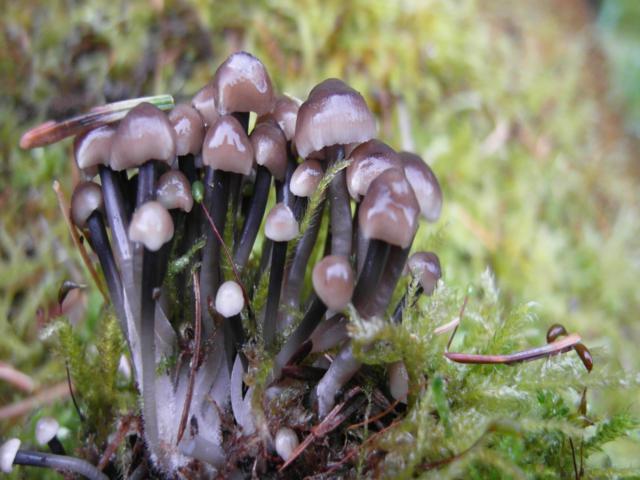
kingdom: Fungi
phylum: Basidiomycota
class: Agaricomycetes
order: Agaricales
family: Mycenaceae
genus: Mycena
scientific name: Mycena tintinnabulum
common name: vinter-huesvamp
